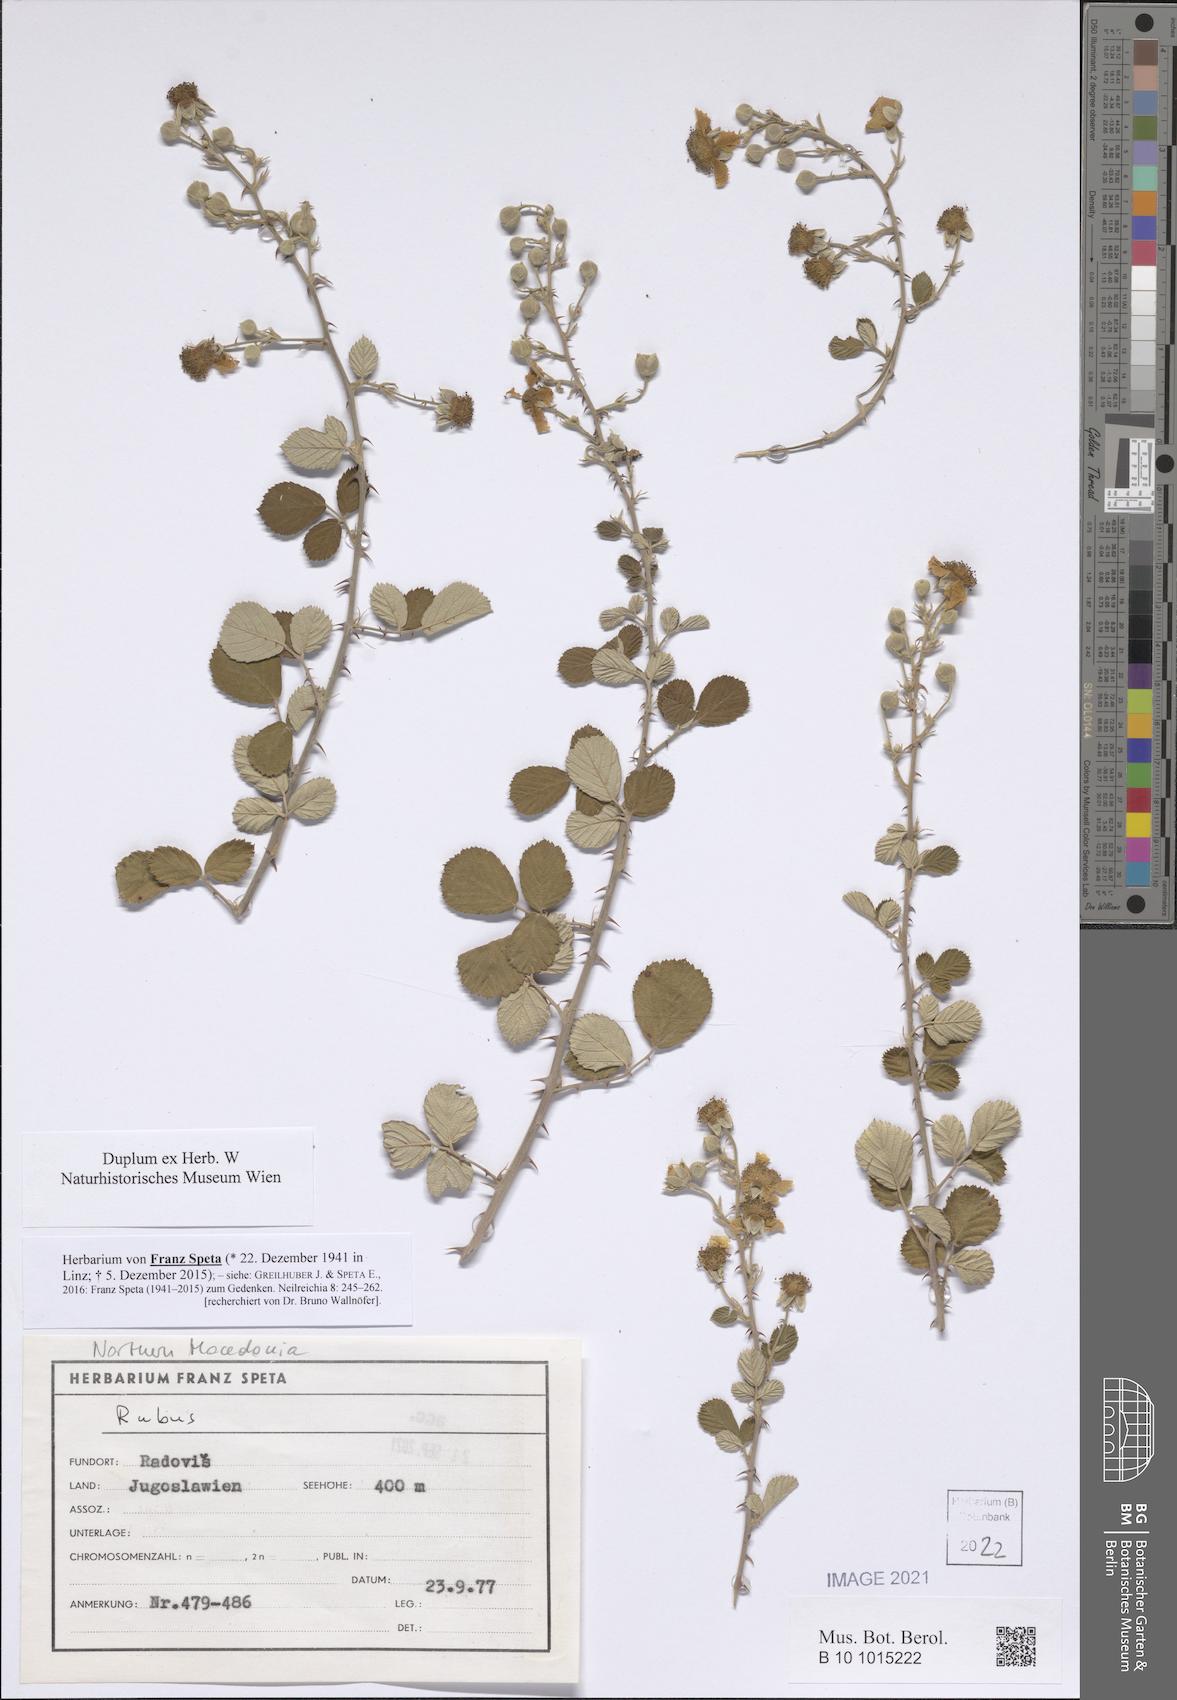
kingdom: Plantae
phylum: Tracheophyta
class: Magnoliopsida
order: Rosales
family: Rosaceae
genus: Rubus
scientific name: Rubus
